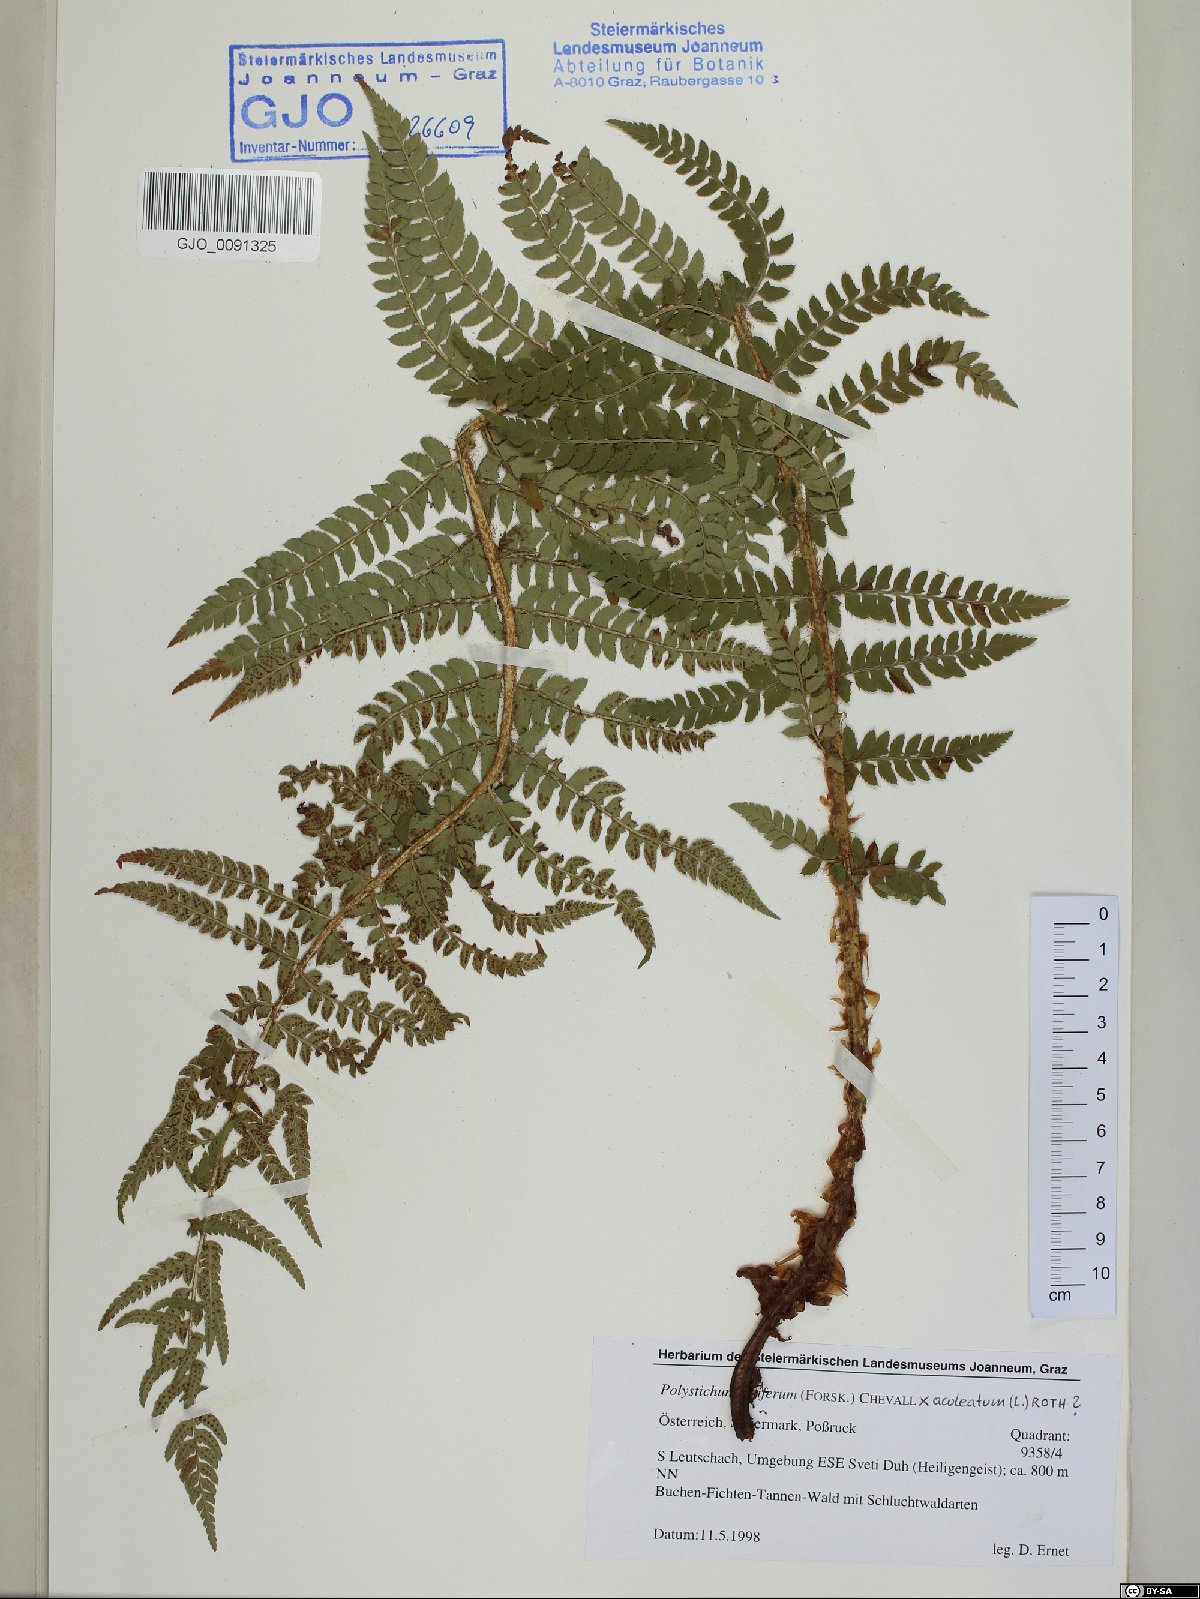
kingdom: Plantae
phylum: Tracheophyta
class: Polypodiopsida
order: Polypodiales
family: Dryopteridaceae
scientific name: Dryopteridaceae
